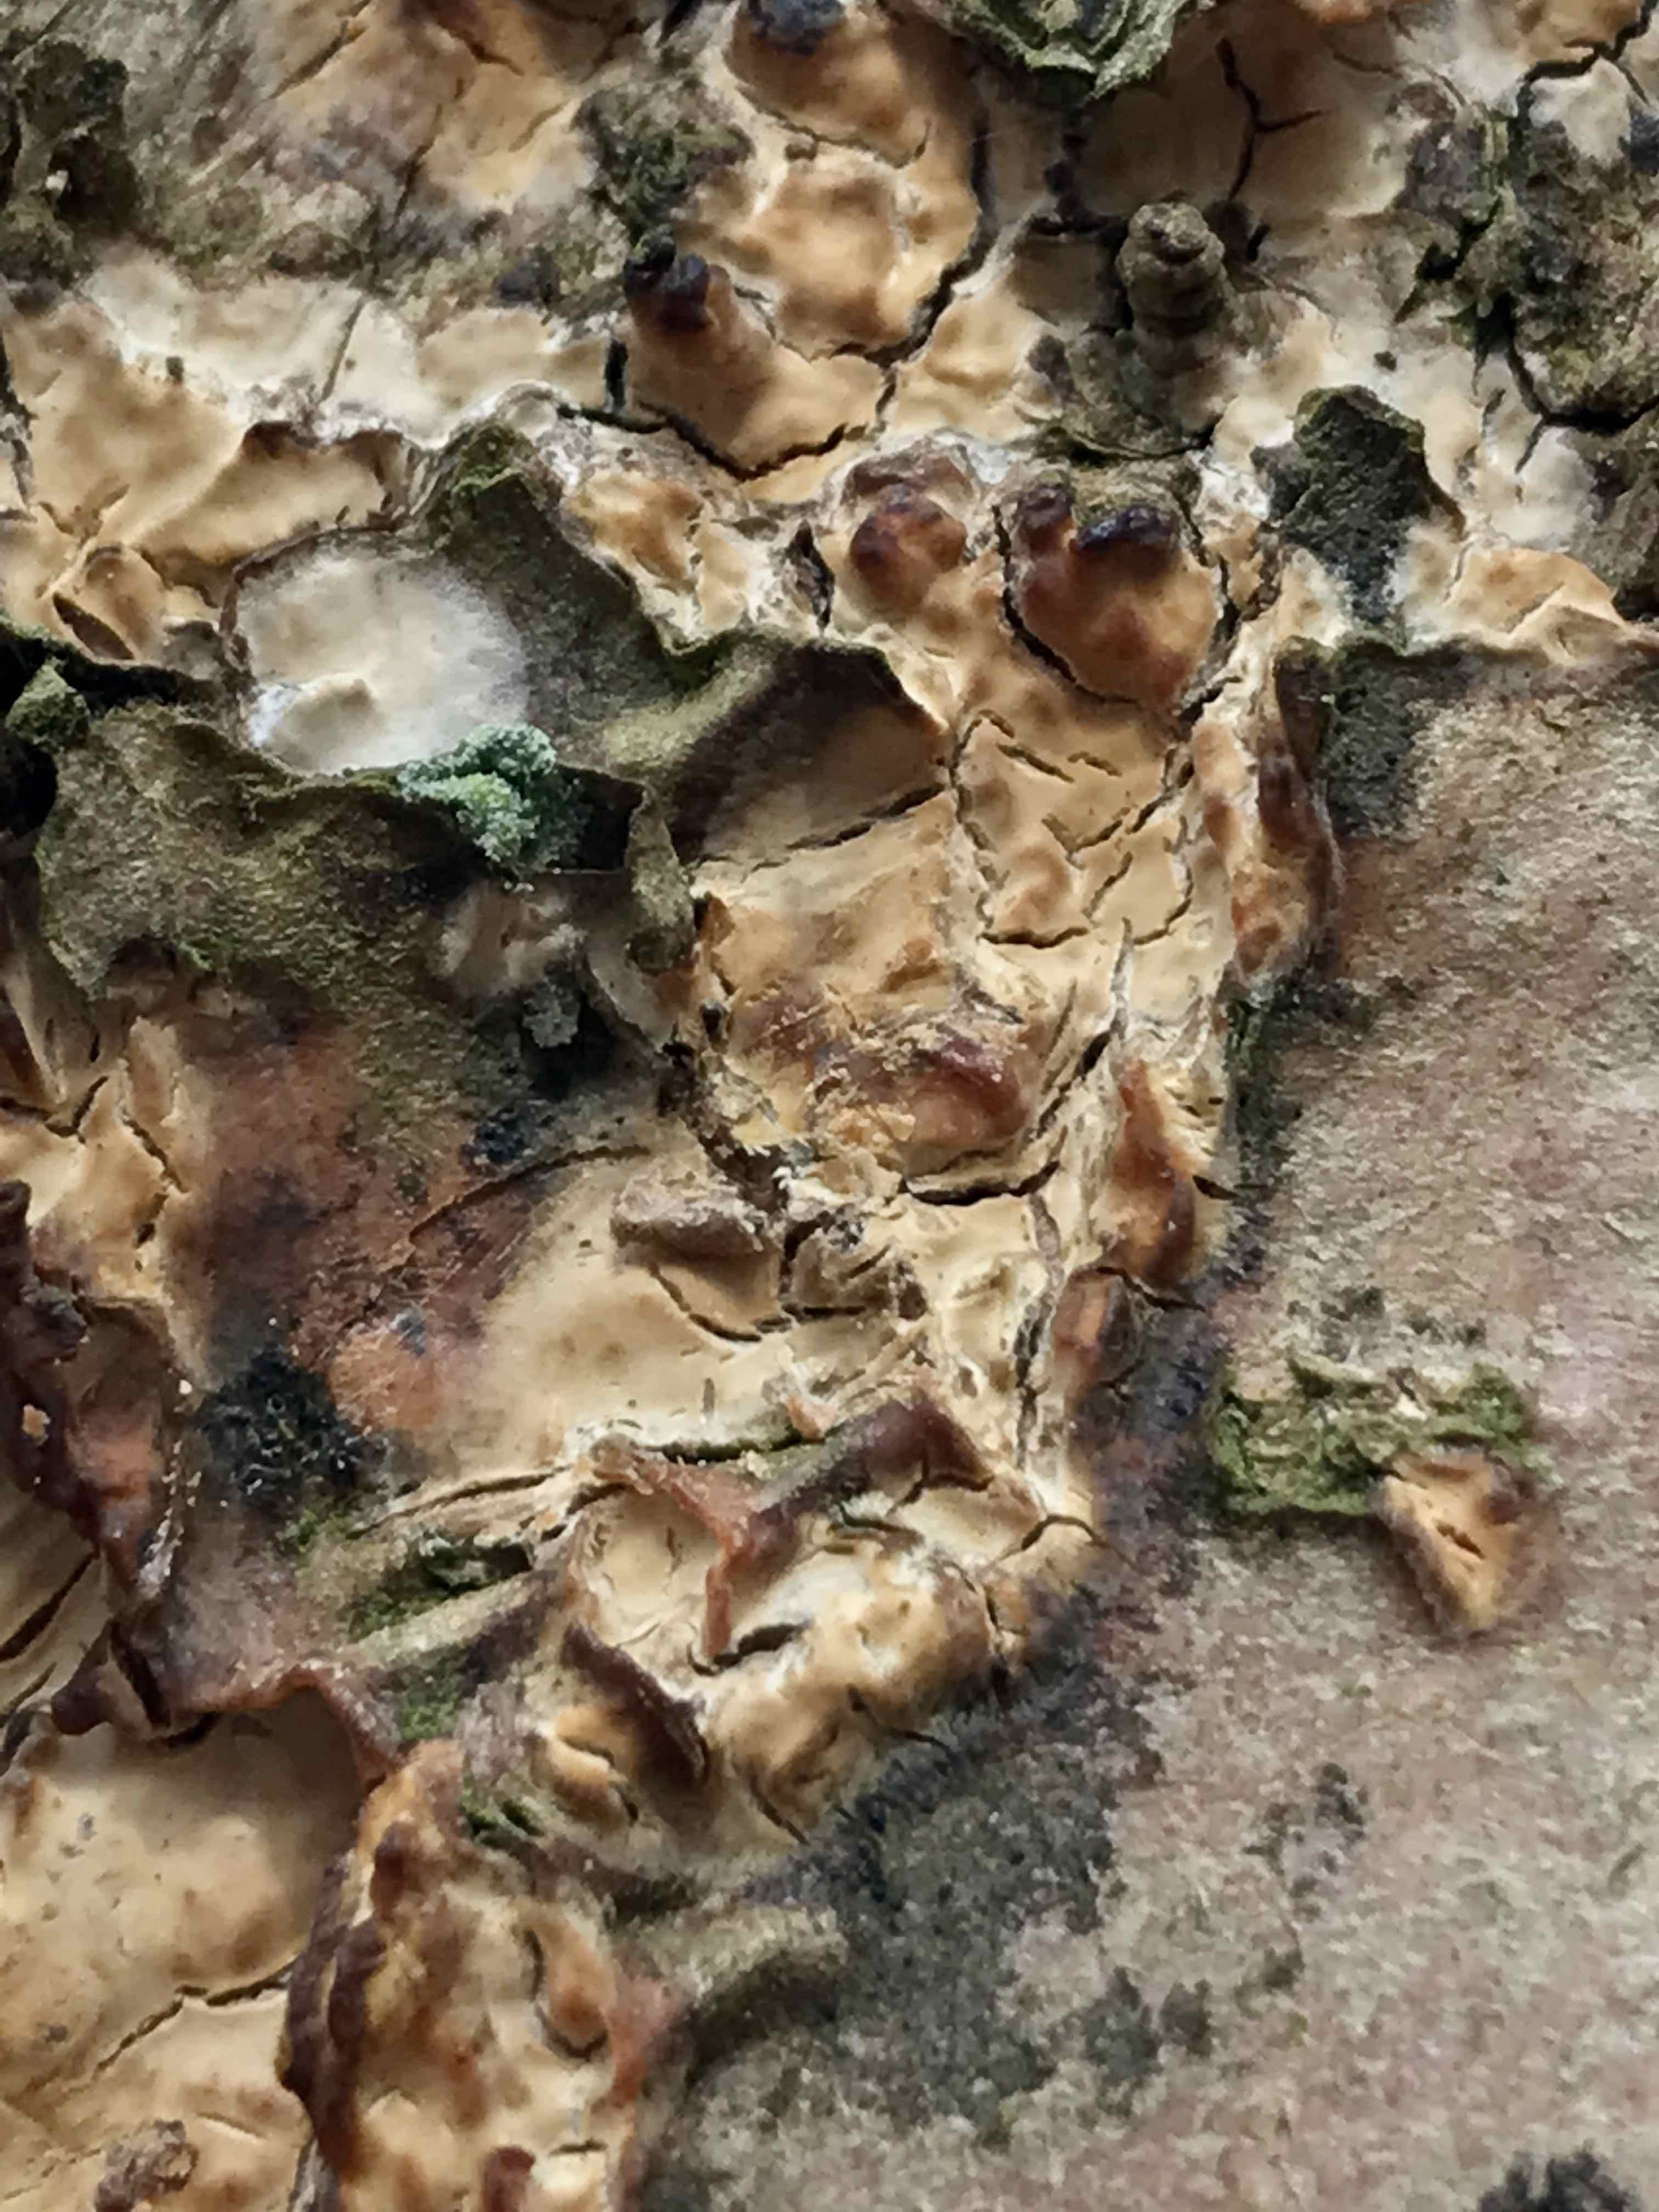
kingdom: Fungi
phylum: Basidiomycota
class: Agaricomycetes
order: Russulales
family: Stereaceae
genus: Stereum
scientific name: Stereum rugosum
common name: rynket lædersvamp
